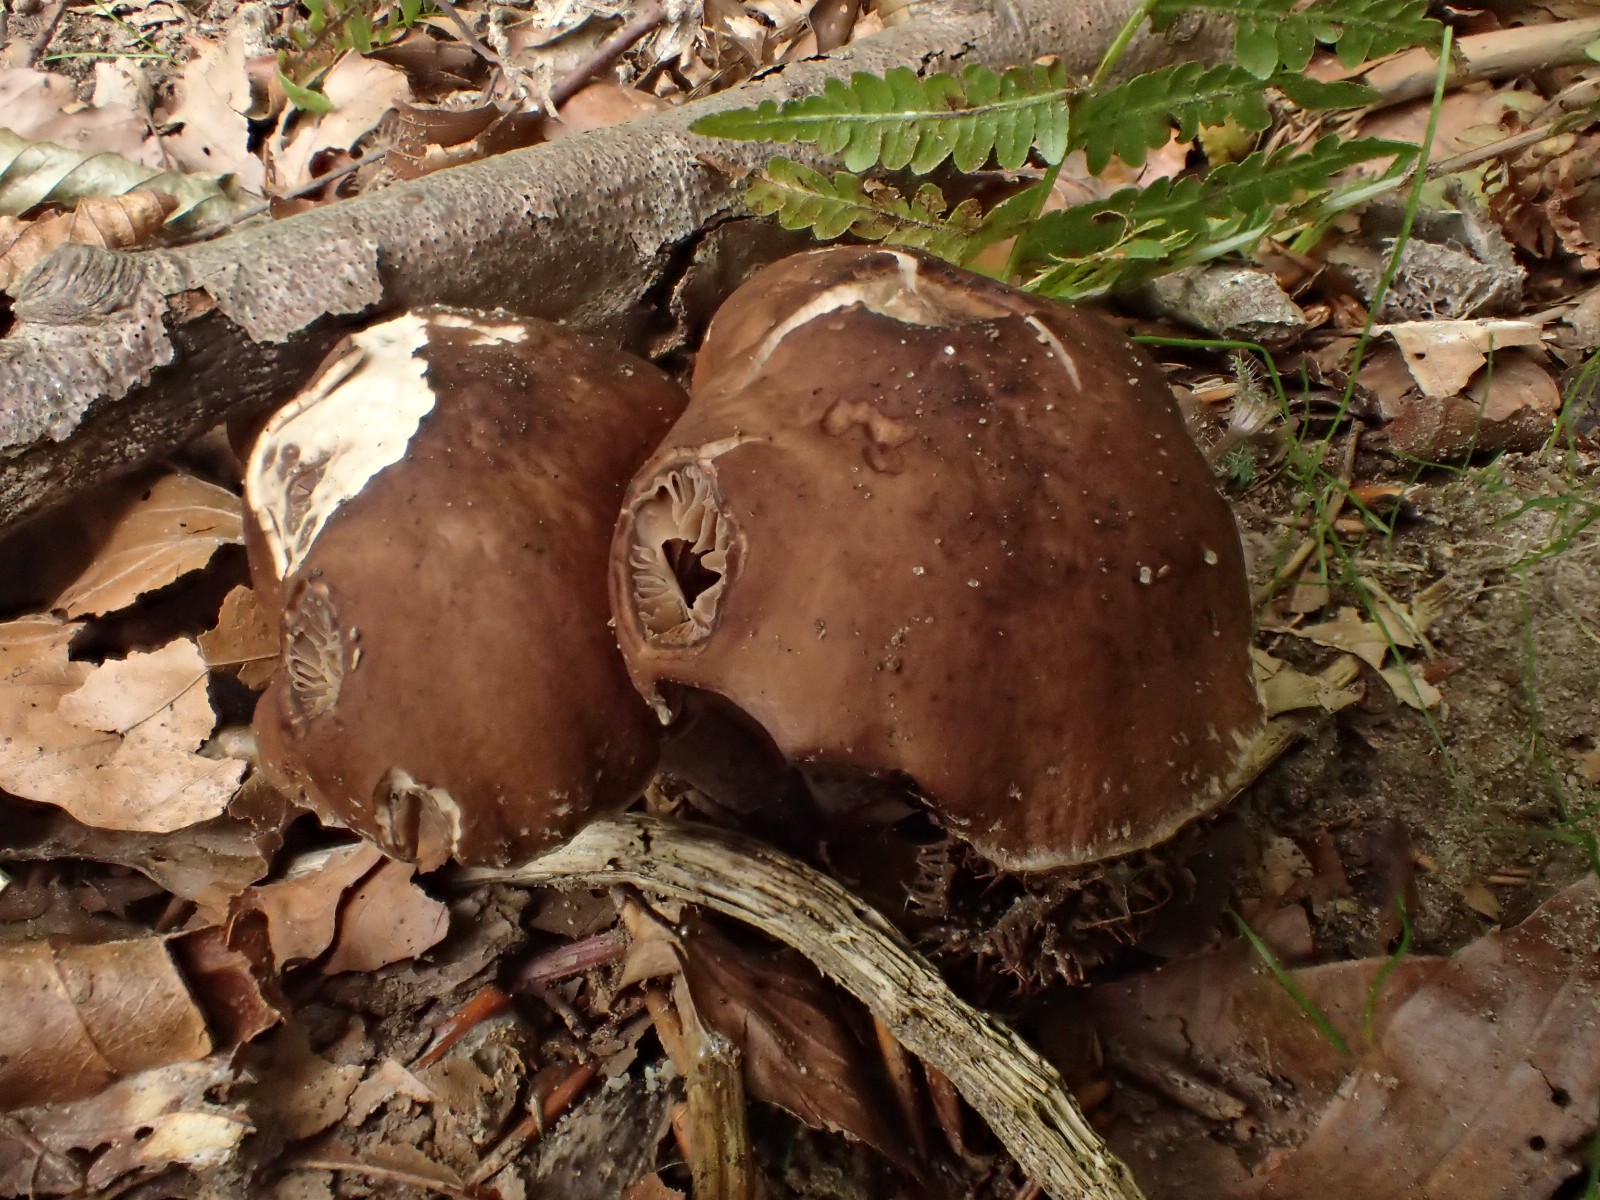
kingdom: Fungi
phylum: Basidiomycota
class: Agaricomycetes
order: Agaricales
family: Tubariaceae
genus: Cyclocybe
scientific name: Cyclocybe erebia
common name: mørk agerhat
